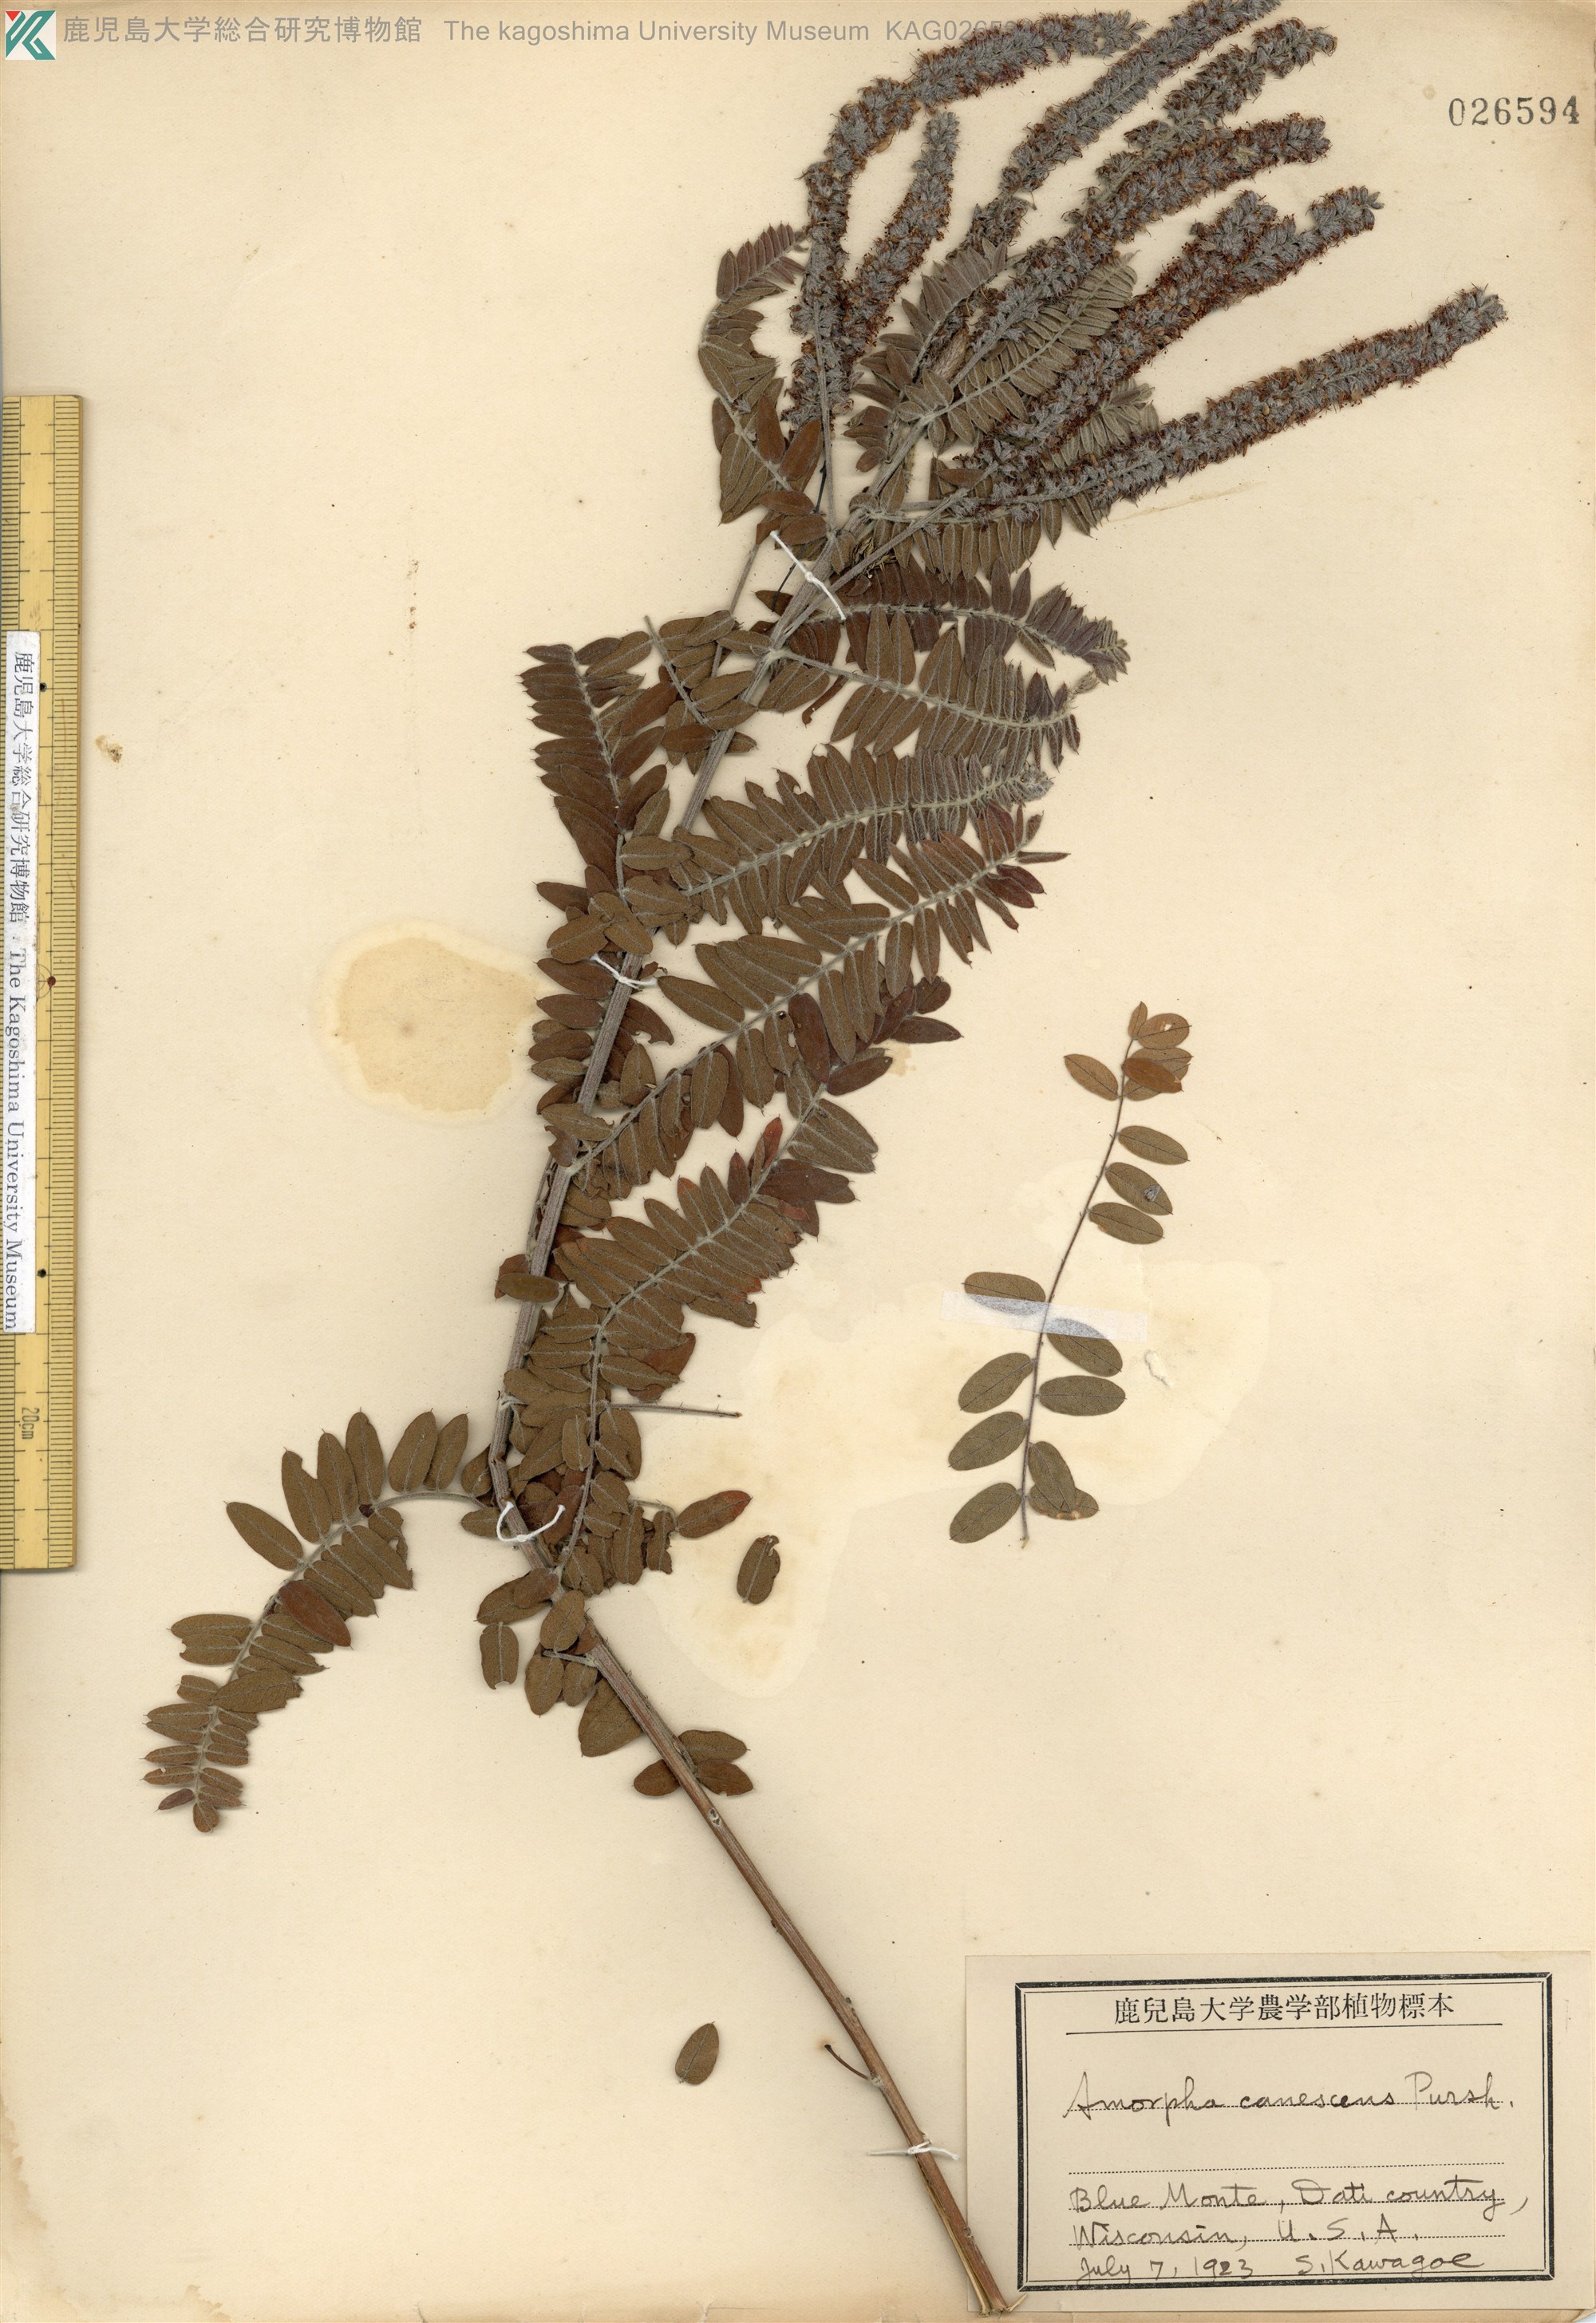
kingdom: Plantae
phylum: Tracheophyta
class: Magnoliopsida
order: Fabales
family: Fabaceae
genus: Amorpha
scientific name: Amorpha canescens
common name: Leadplant
